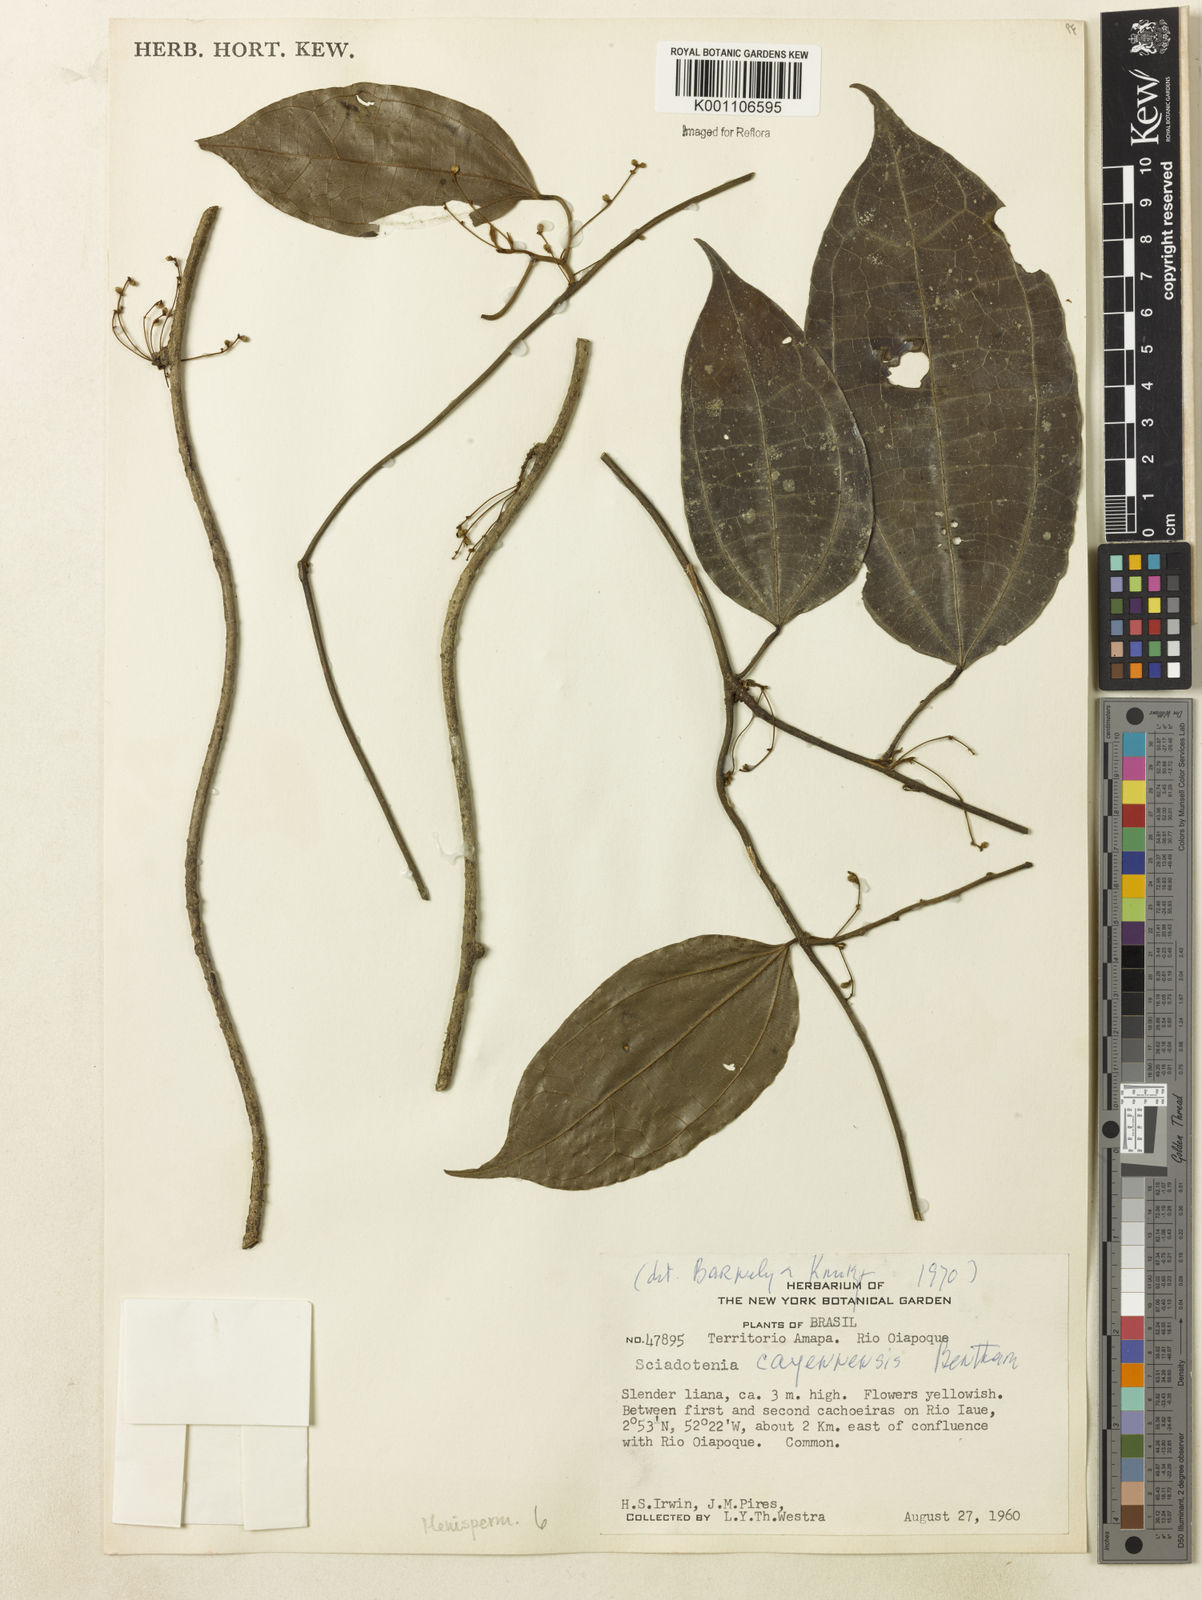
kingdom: Plantae
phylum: Tracheophyta
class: Magnoliopsida
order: Ranunculales
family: Menispermaceae
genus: Sciadotenia
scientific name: Sciadotenia cayennensis
